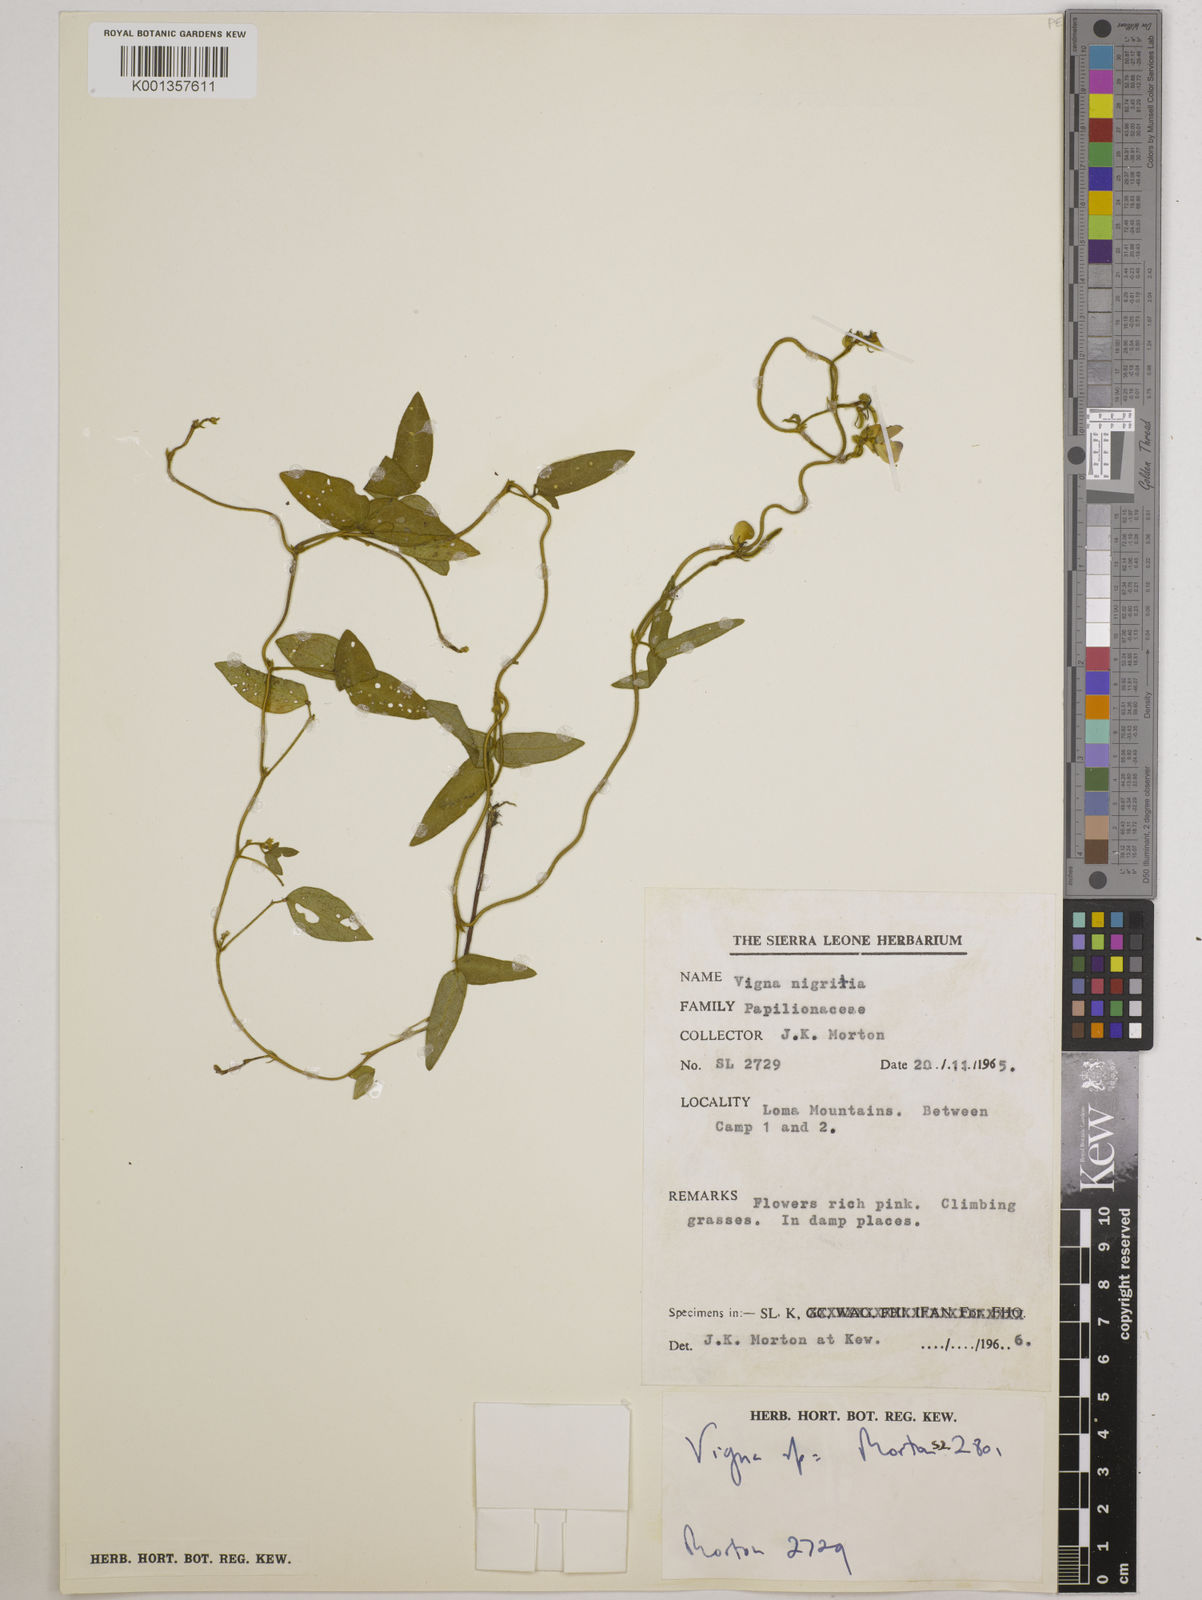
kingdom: Plantae
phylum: Tracheophyta
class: Magnoliopsida
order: Fabales
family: Fabaceae
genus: Vigna
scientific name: Vigna
